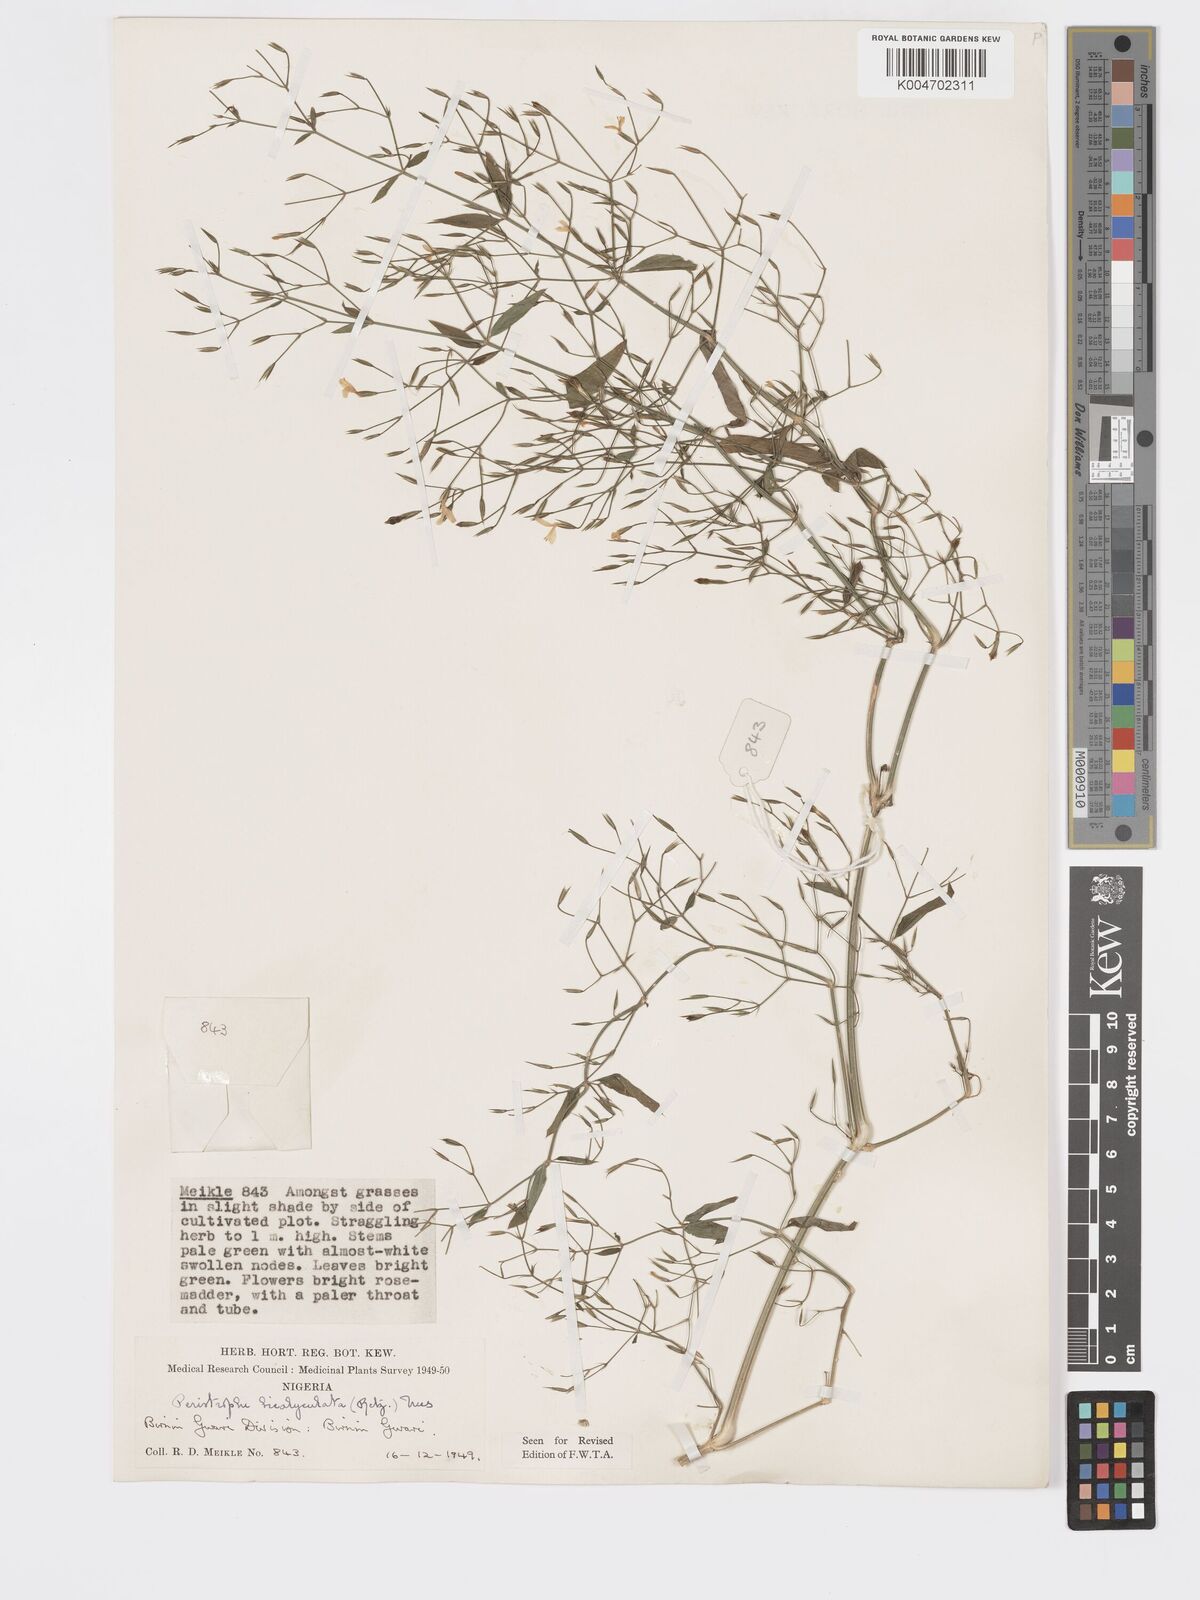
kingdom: Plantae
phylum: Tracheophyta
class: Magnoliopsida
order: Lamiales
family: Acanthaceae
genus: Dicliptera
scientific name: Dicliptera paniculata
